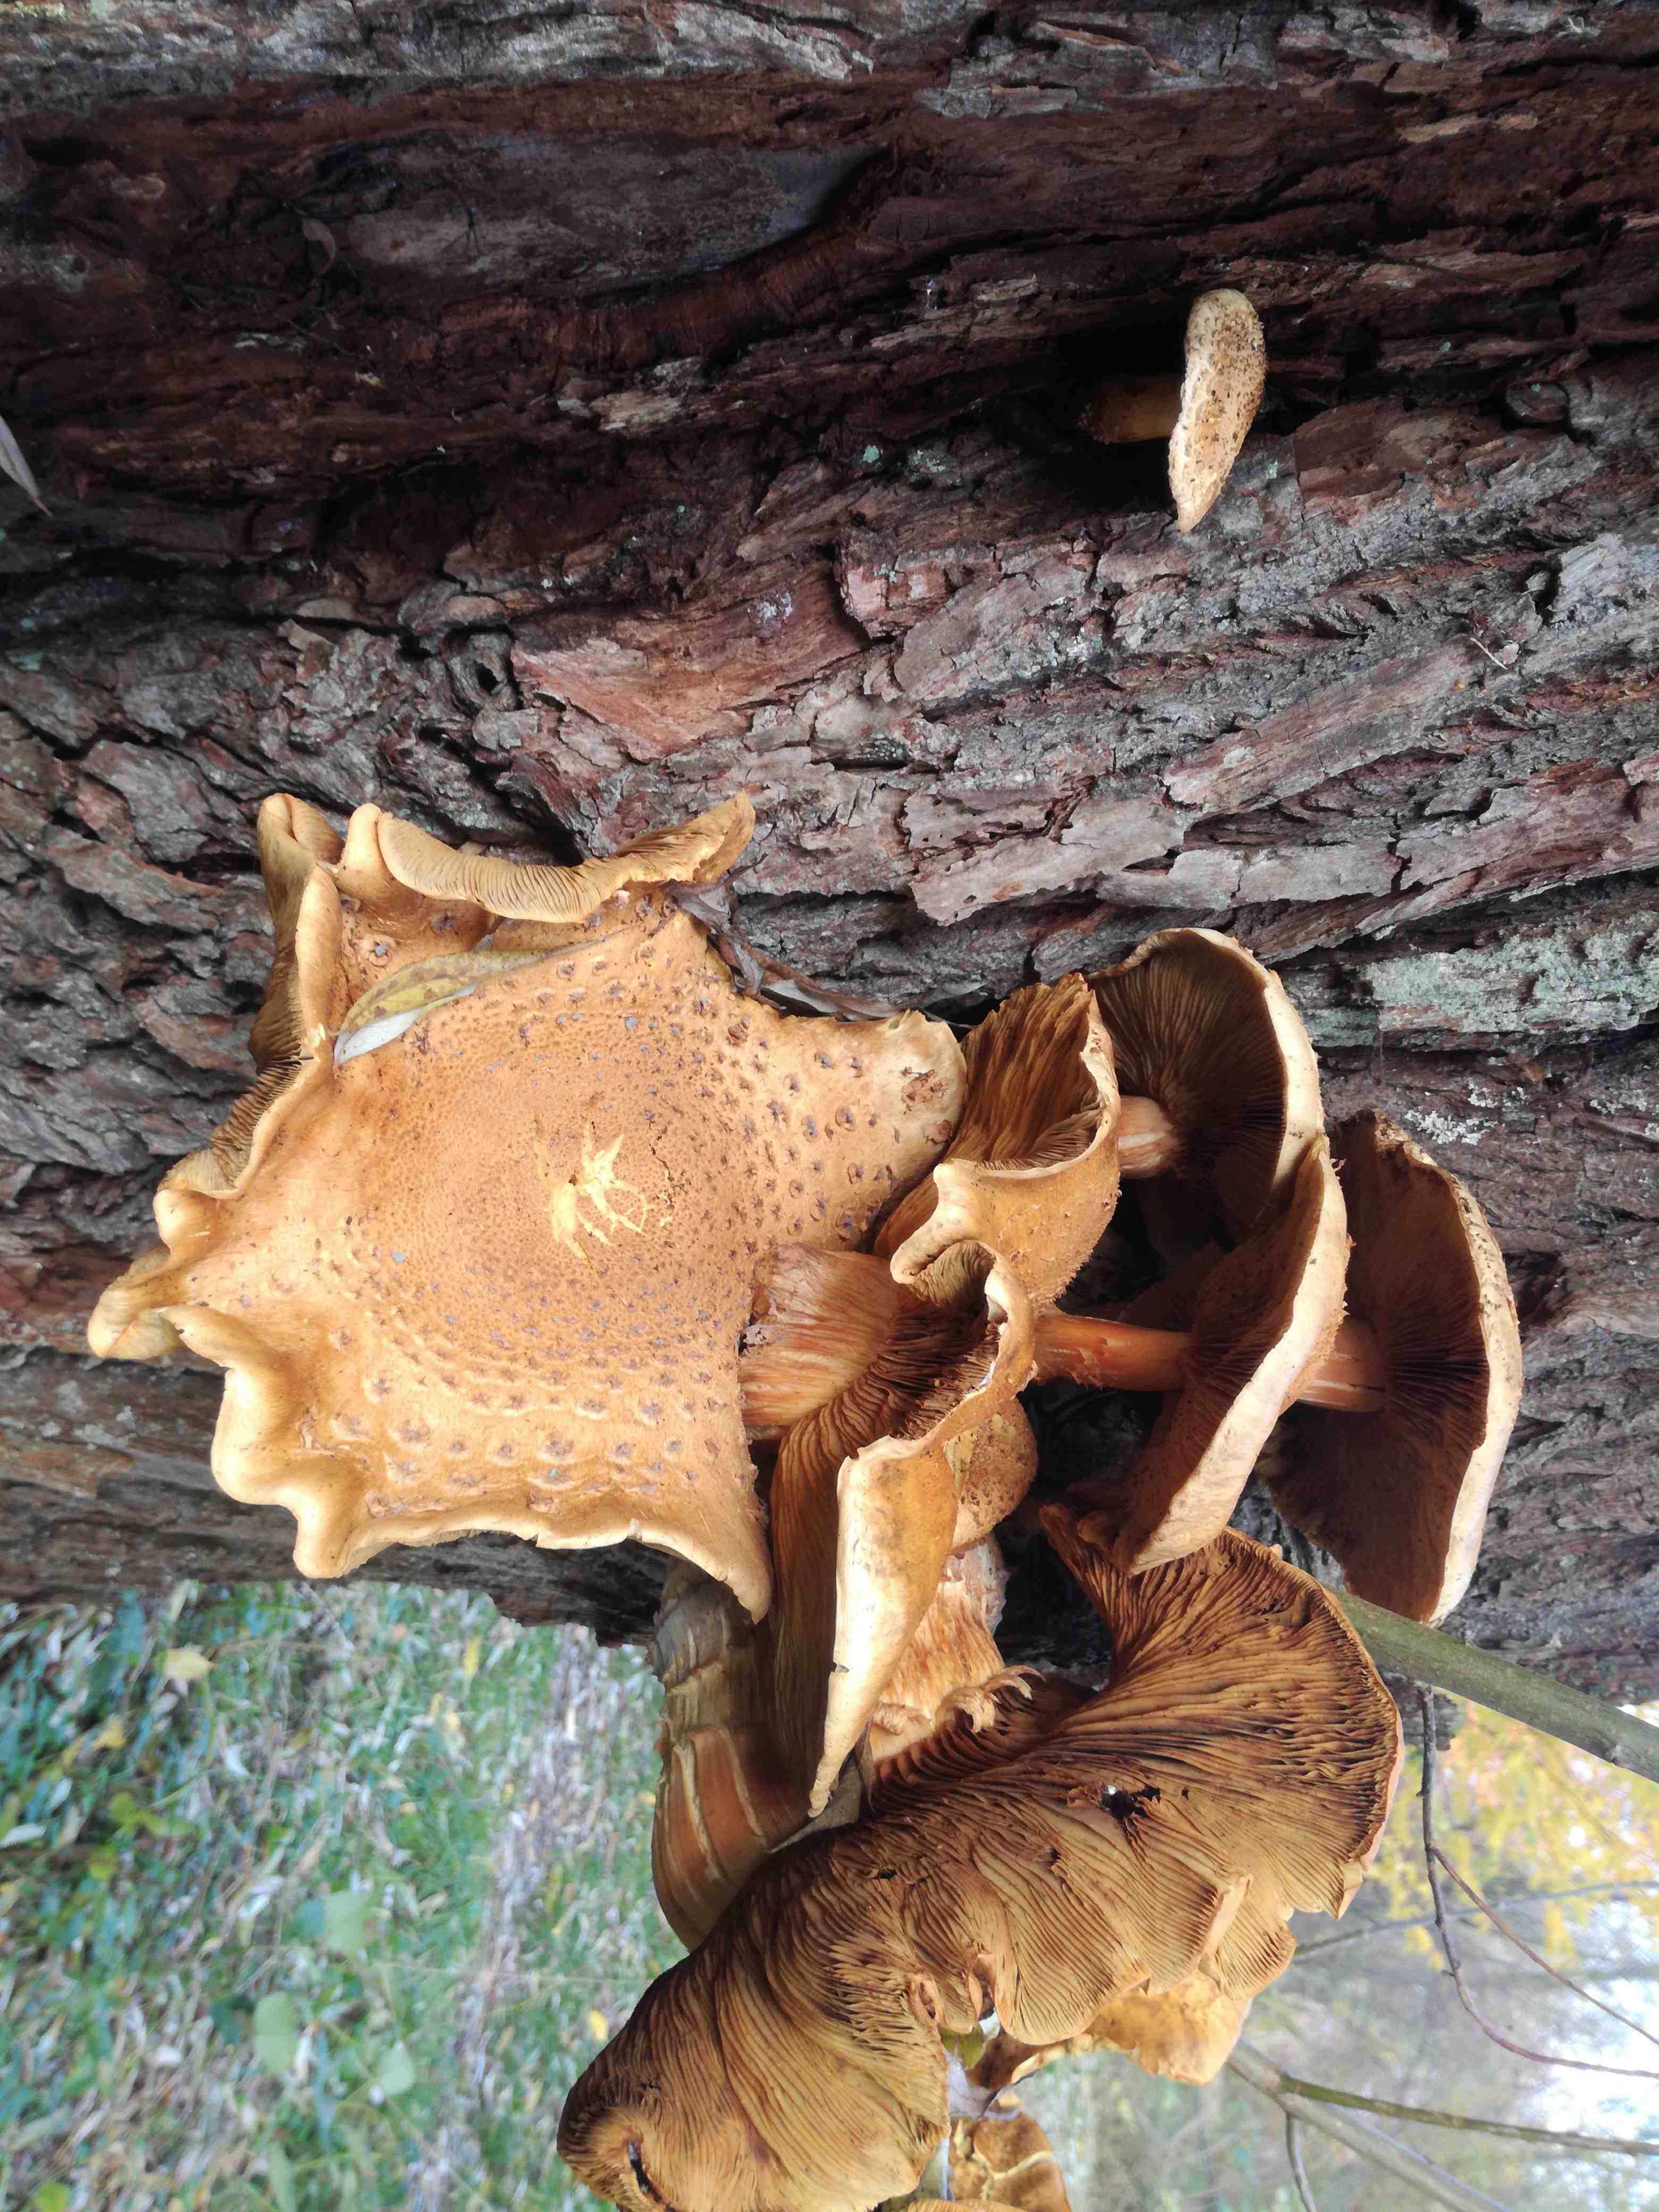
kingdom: Fungi
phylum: Basidiomycota
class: Agaricomycetes
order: Agaricales
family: Strophariaceae
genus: Pholiota
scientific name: Pholiota squarrosa
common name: krumskællet skælhat
